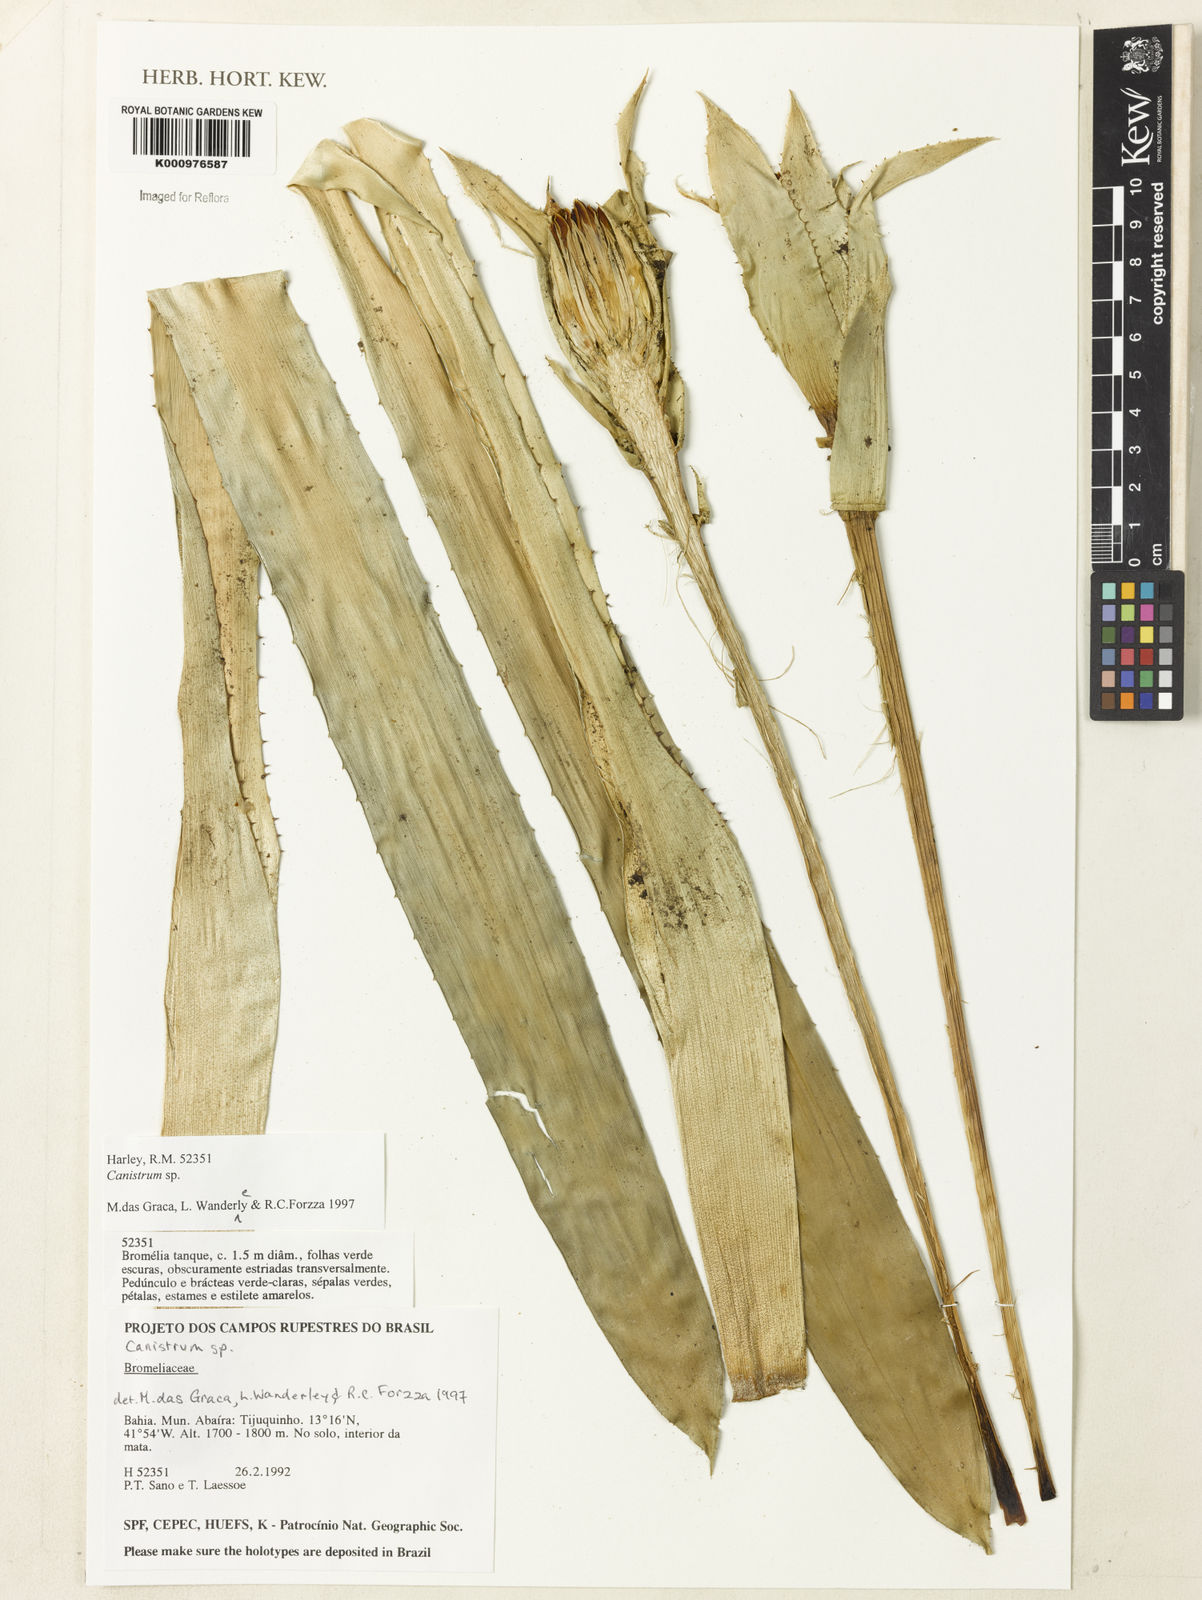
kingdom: Plantae
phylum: Tracheophyta
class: Liliopsida
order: Poales
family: Bromeliaceae
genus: Canistrum
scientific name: Canistrum
